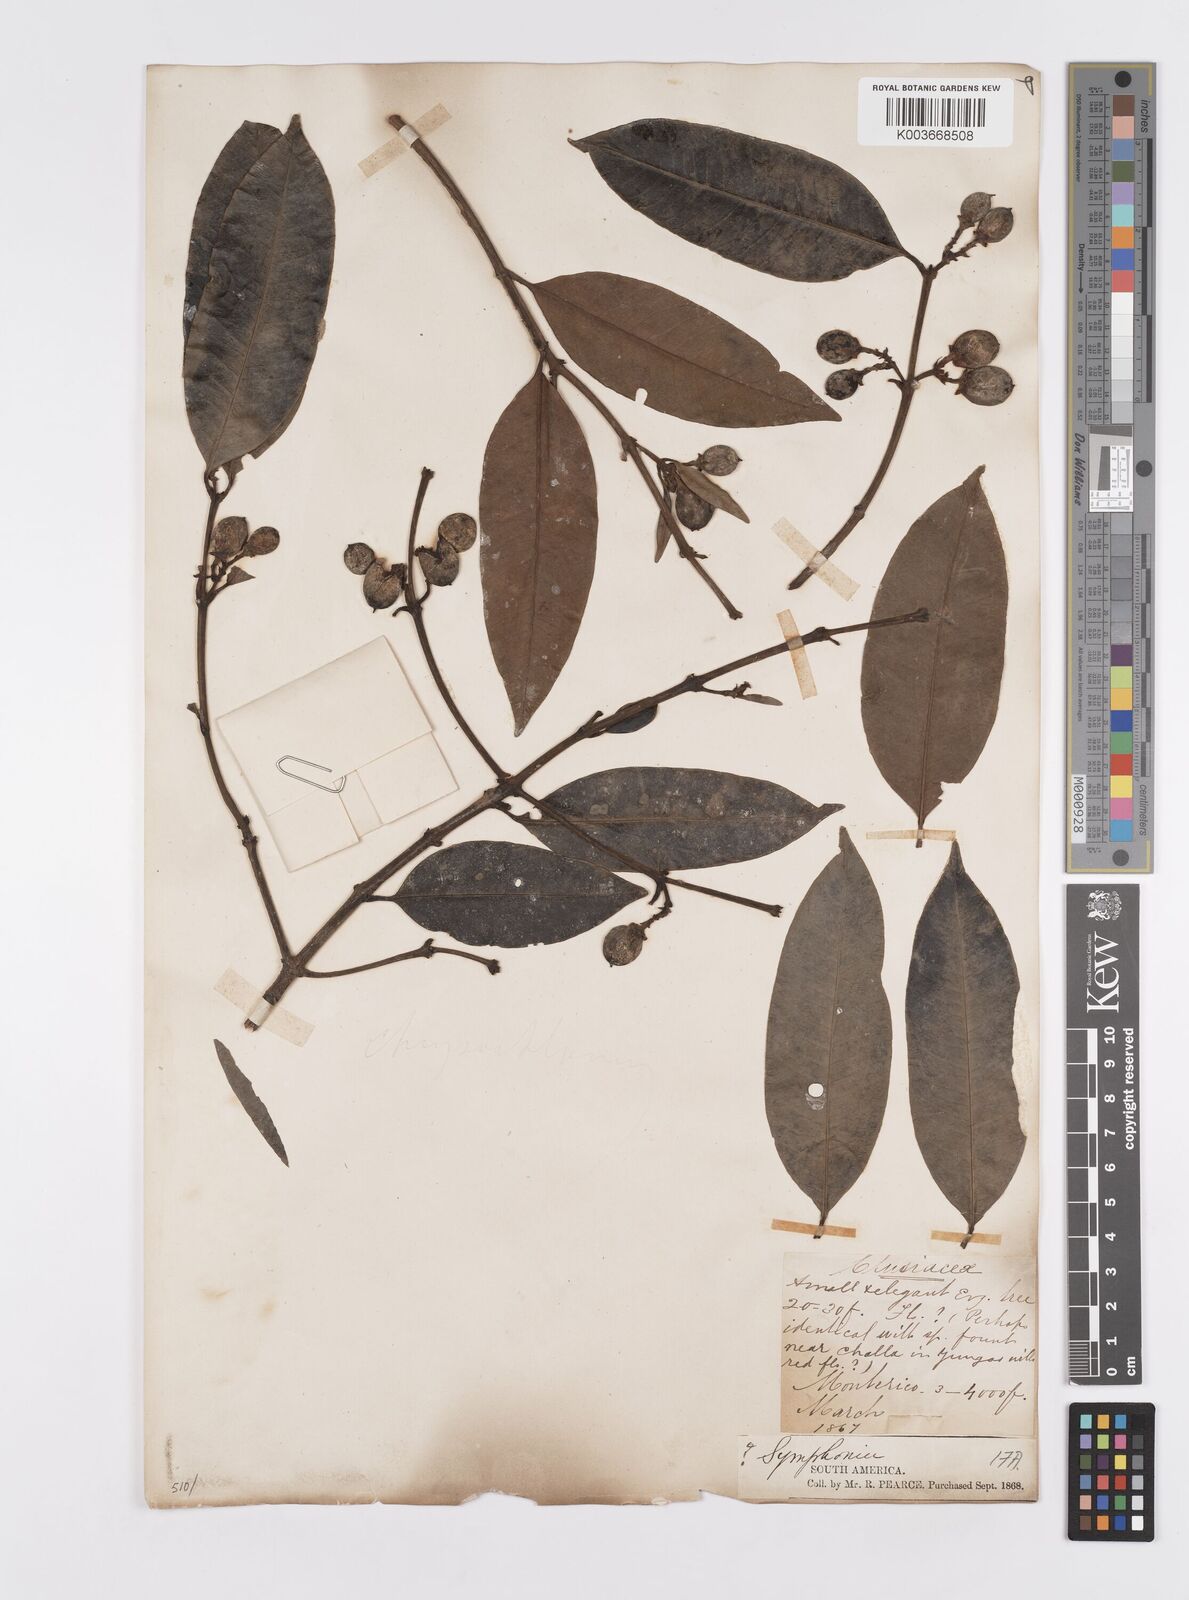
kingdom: Plantae
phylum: Tracheophyta
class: Magnoliopsida
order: Malpighiales
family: Clusiaceae
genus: Chrysochlamys
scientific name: Chrysochlamys
